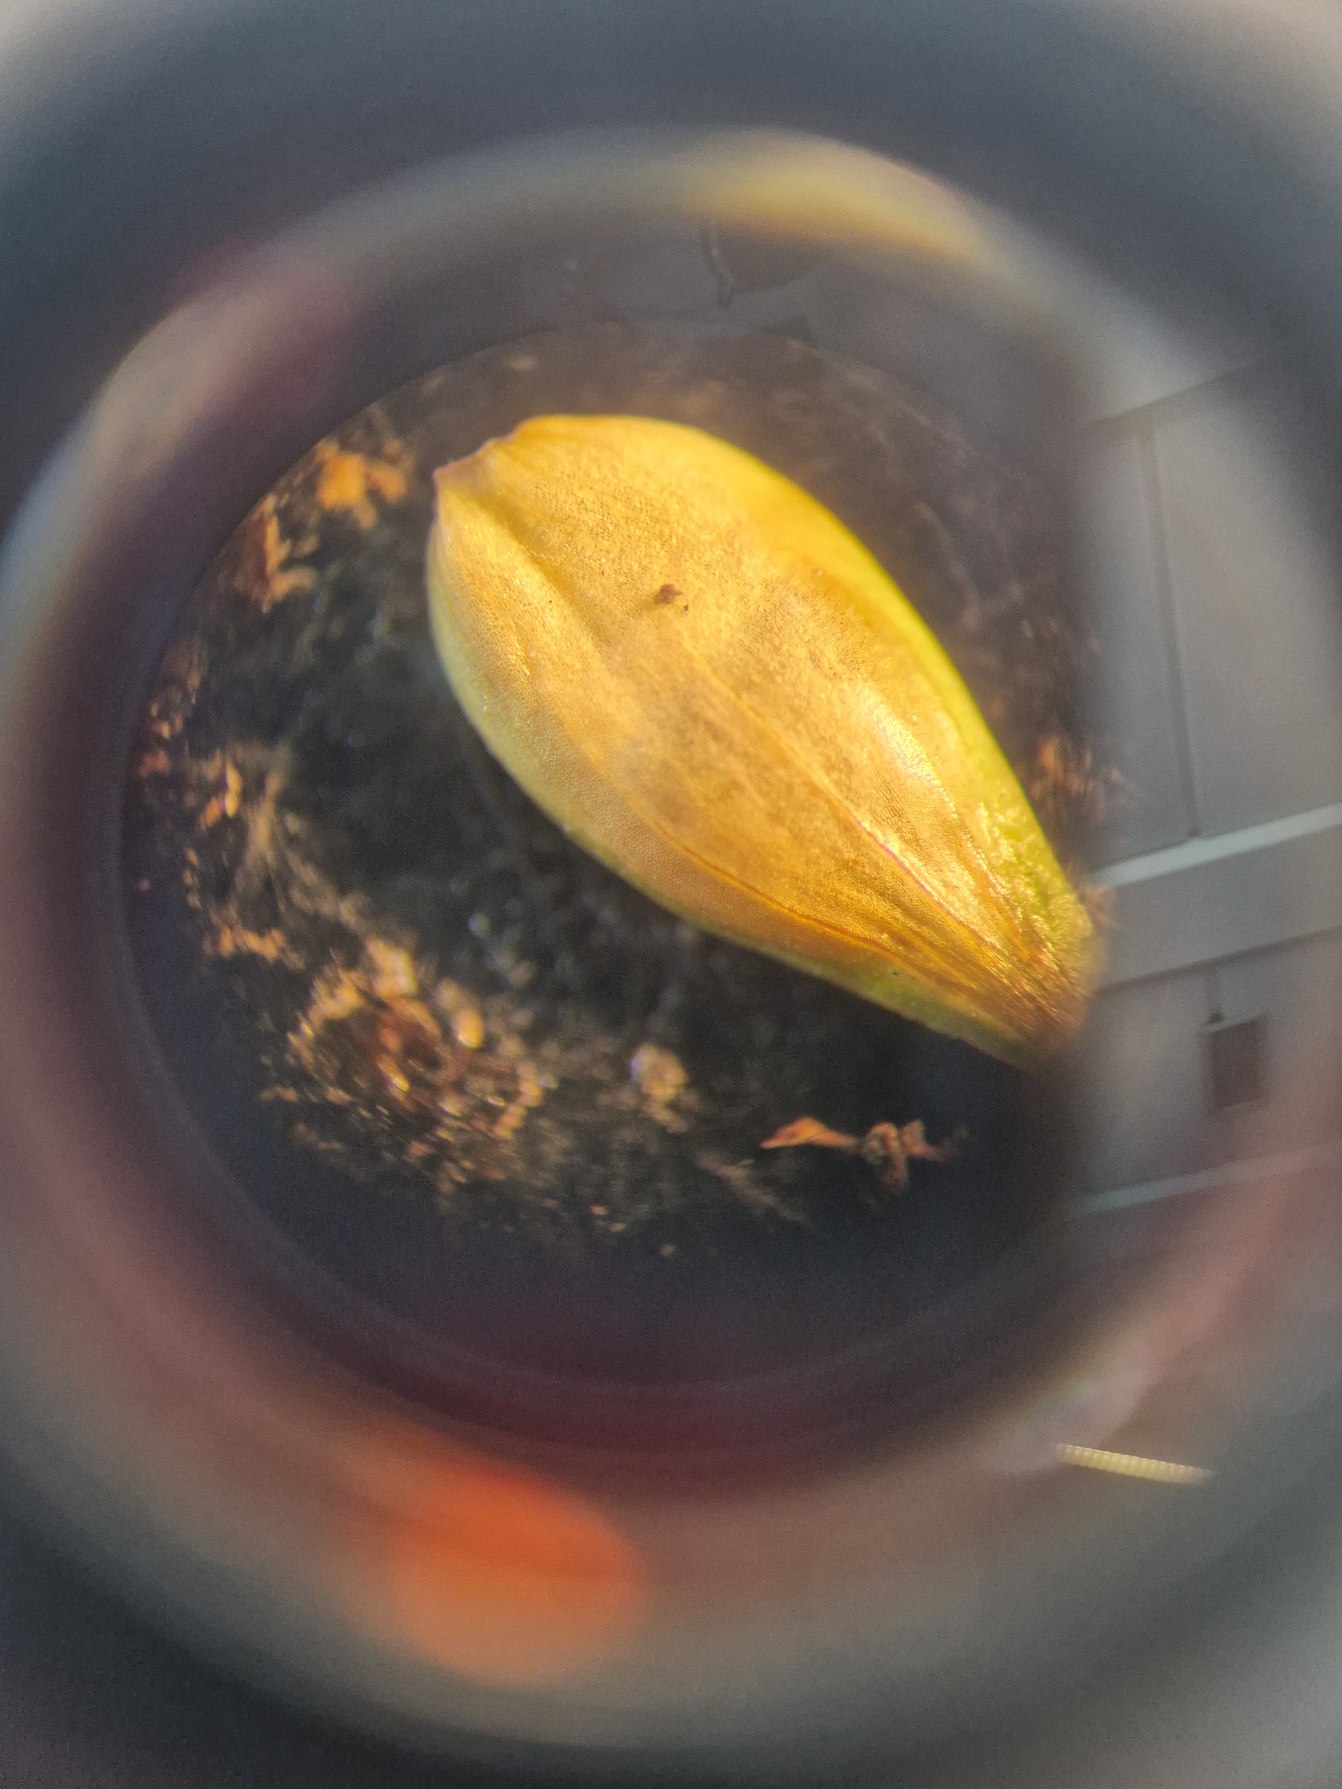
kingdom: Plantae
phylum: Tracheophyta
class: Liliopsida
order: Poales
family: Cyperaceae
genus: Carex
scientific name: Carex spicata
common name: Spidskapslet star
